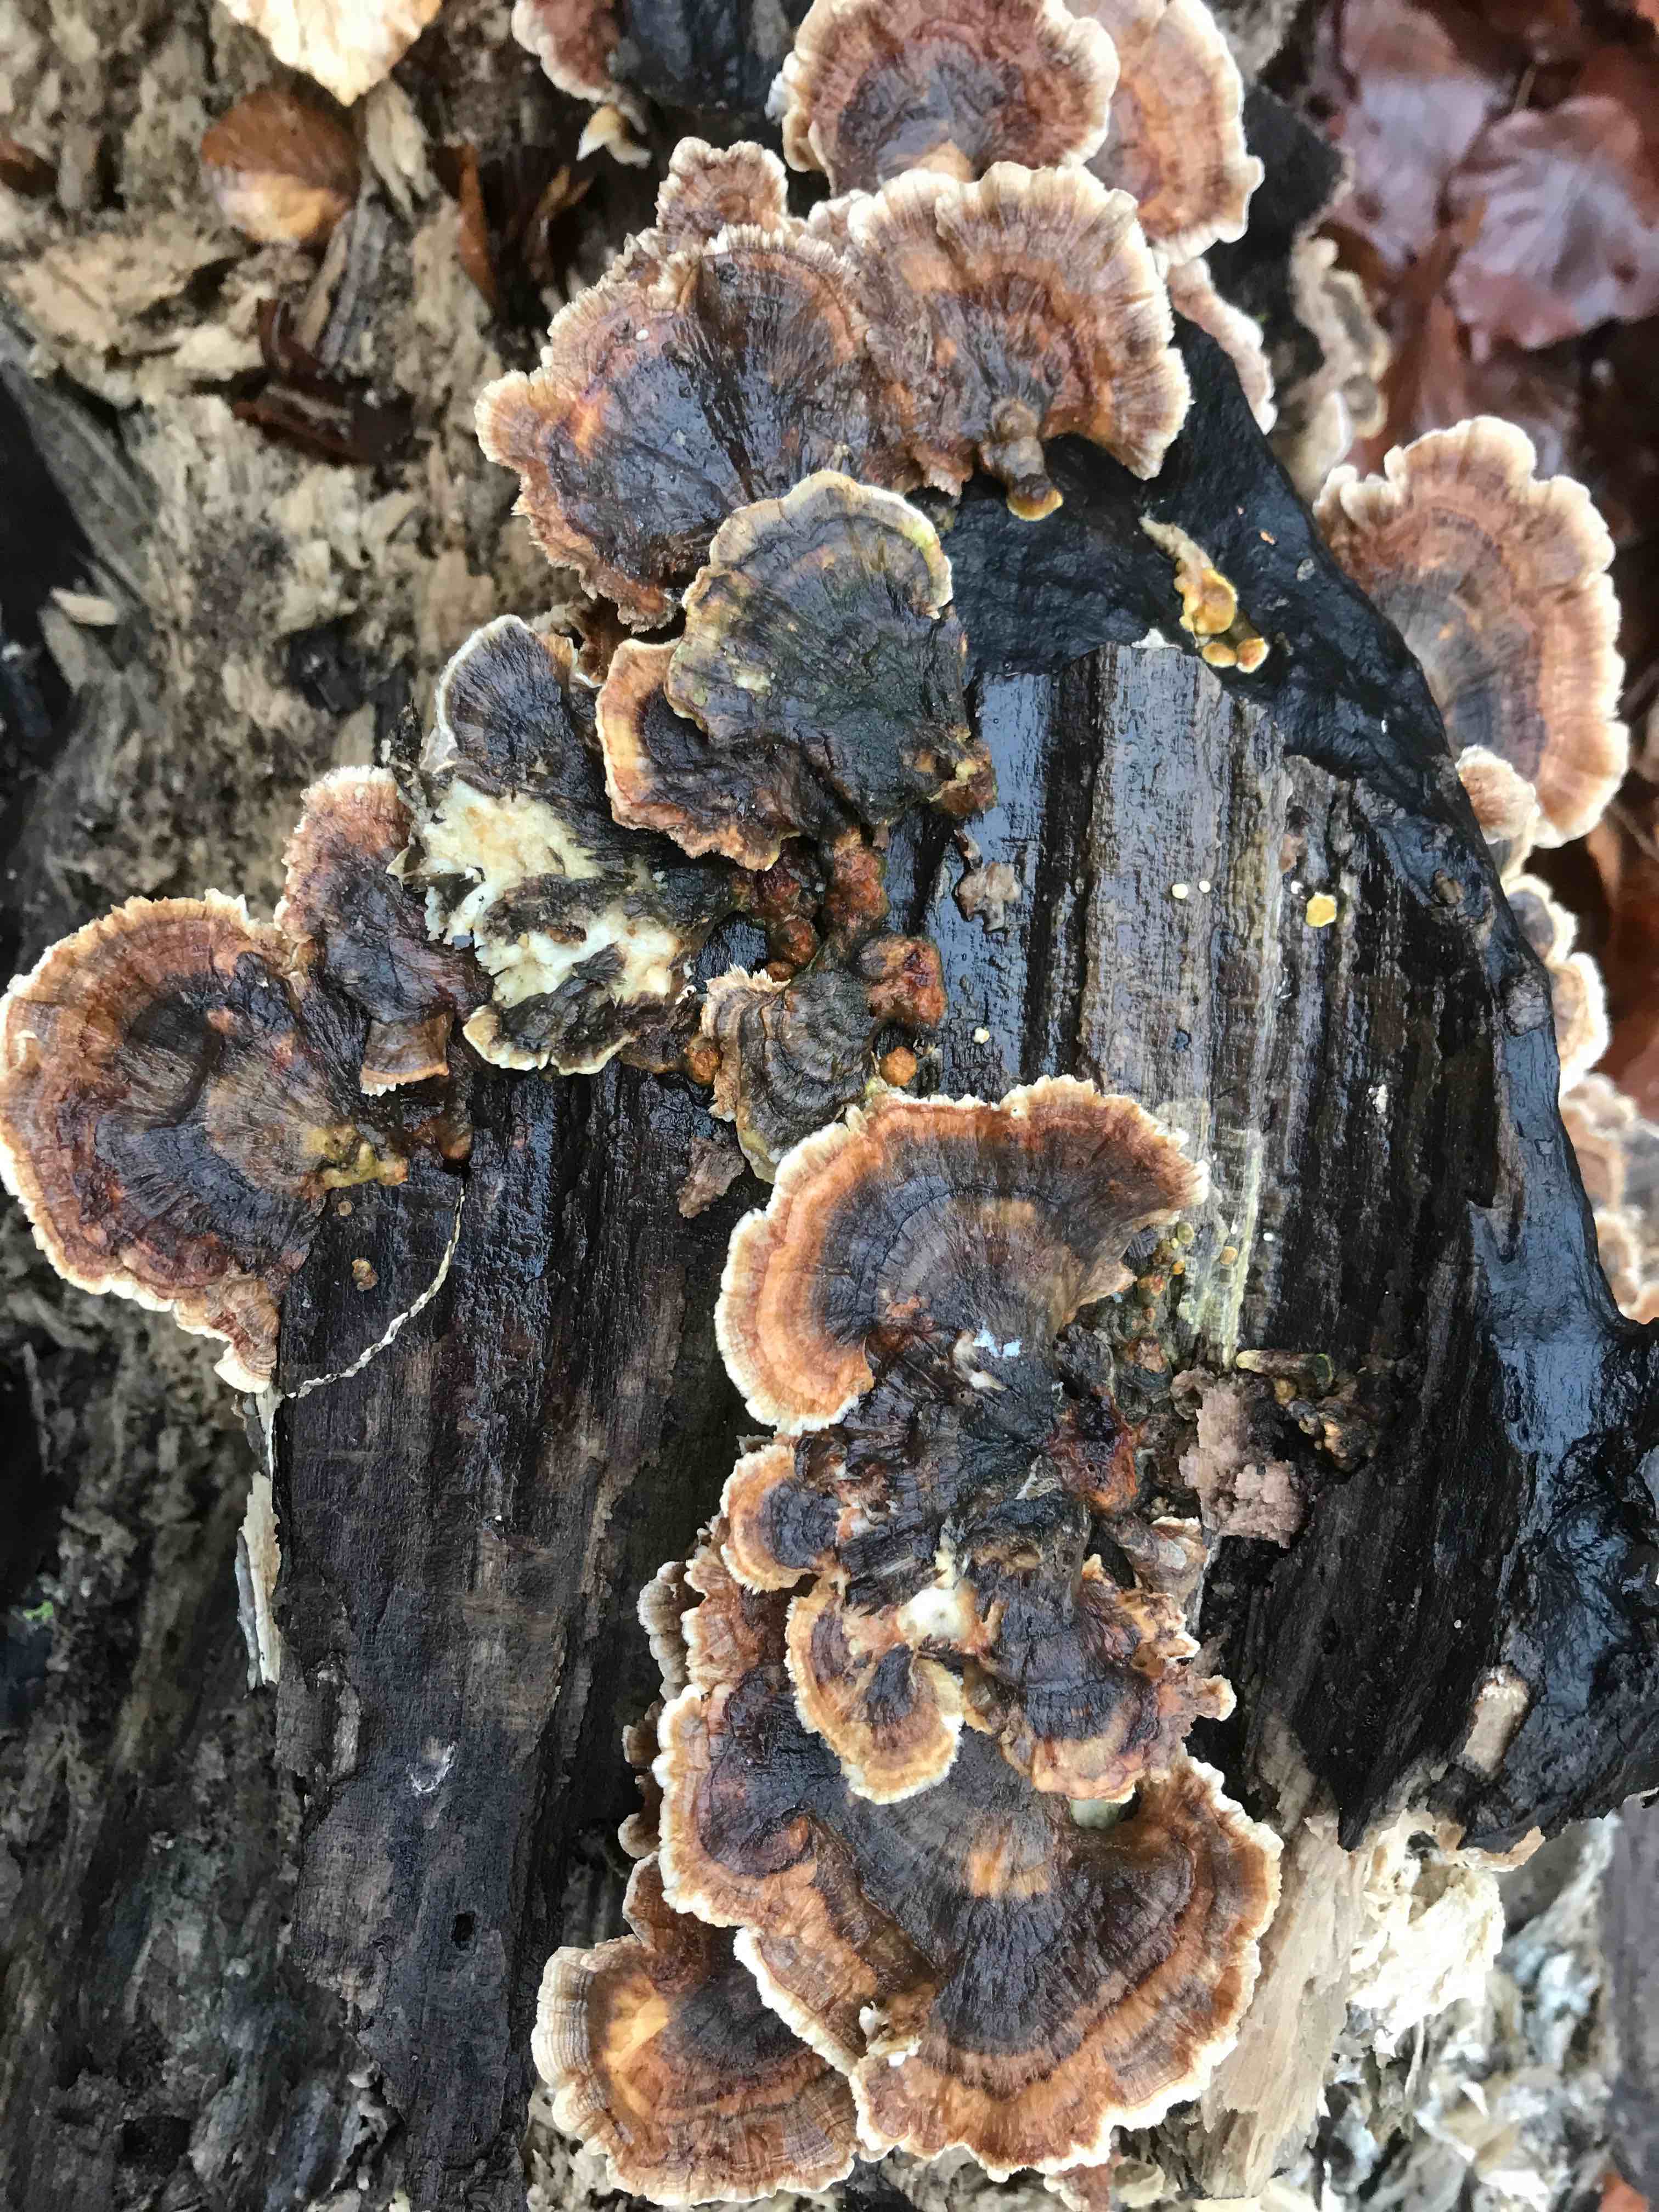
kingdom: Fungi
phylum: Basidiomycota
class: Agaricomycetes
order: Polyporales
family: Polyporaceae
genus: Trametes
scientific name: Trametes versicolor
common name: broget læderporesvamp
